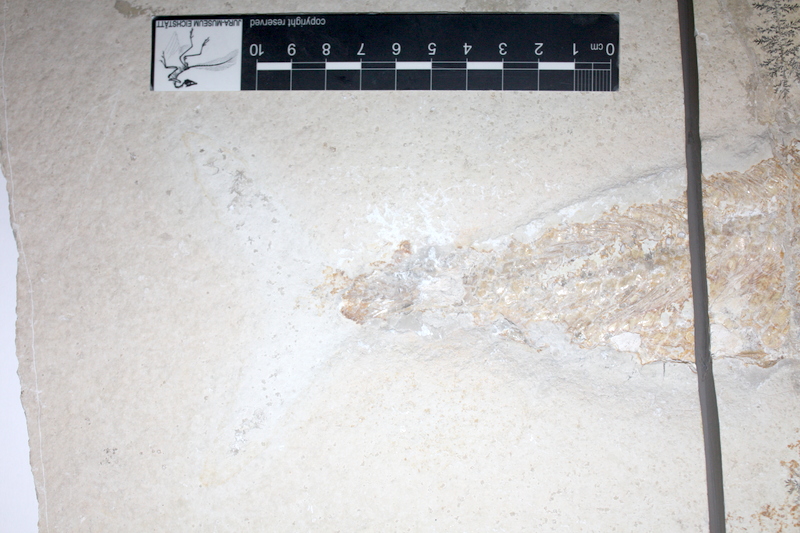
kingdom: Animalia
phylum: Chordata
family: Ankylophoridae
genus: Siemensichthys
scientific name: Siemensichthys macrocephalus
